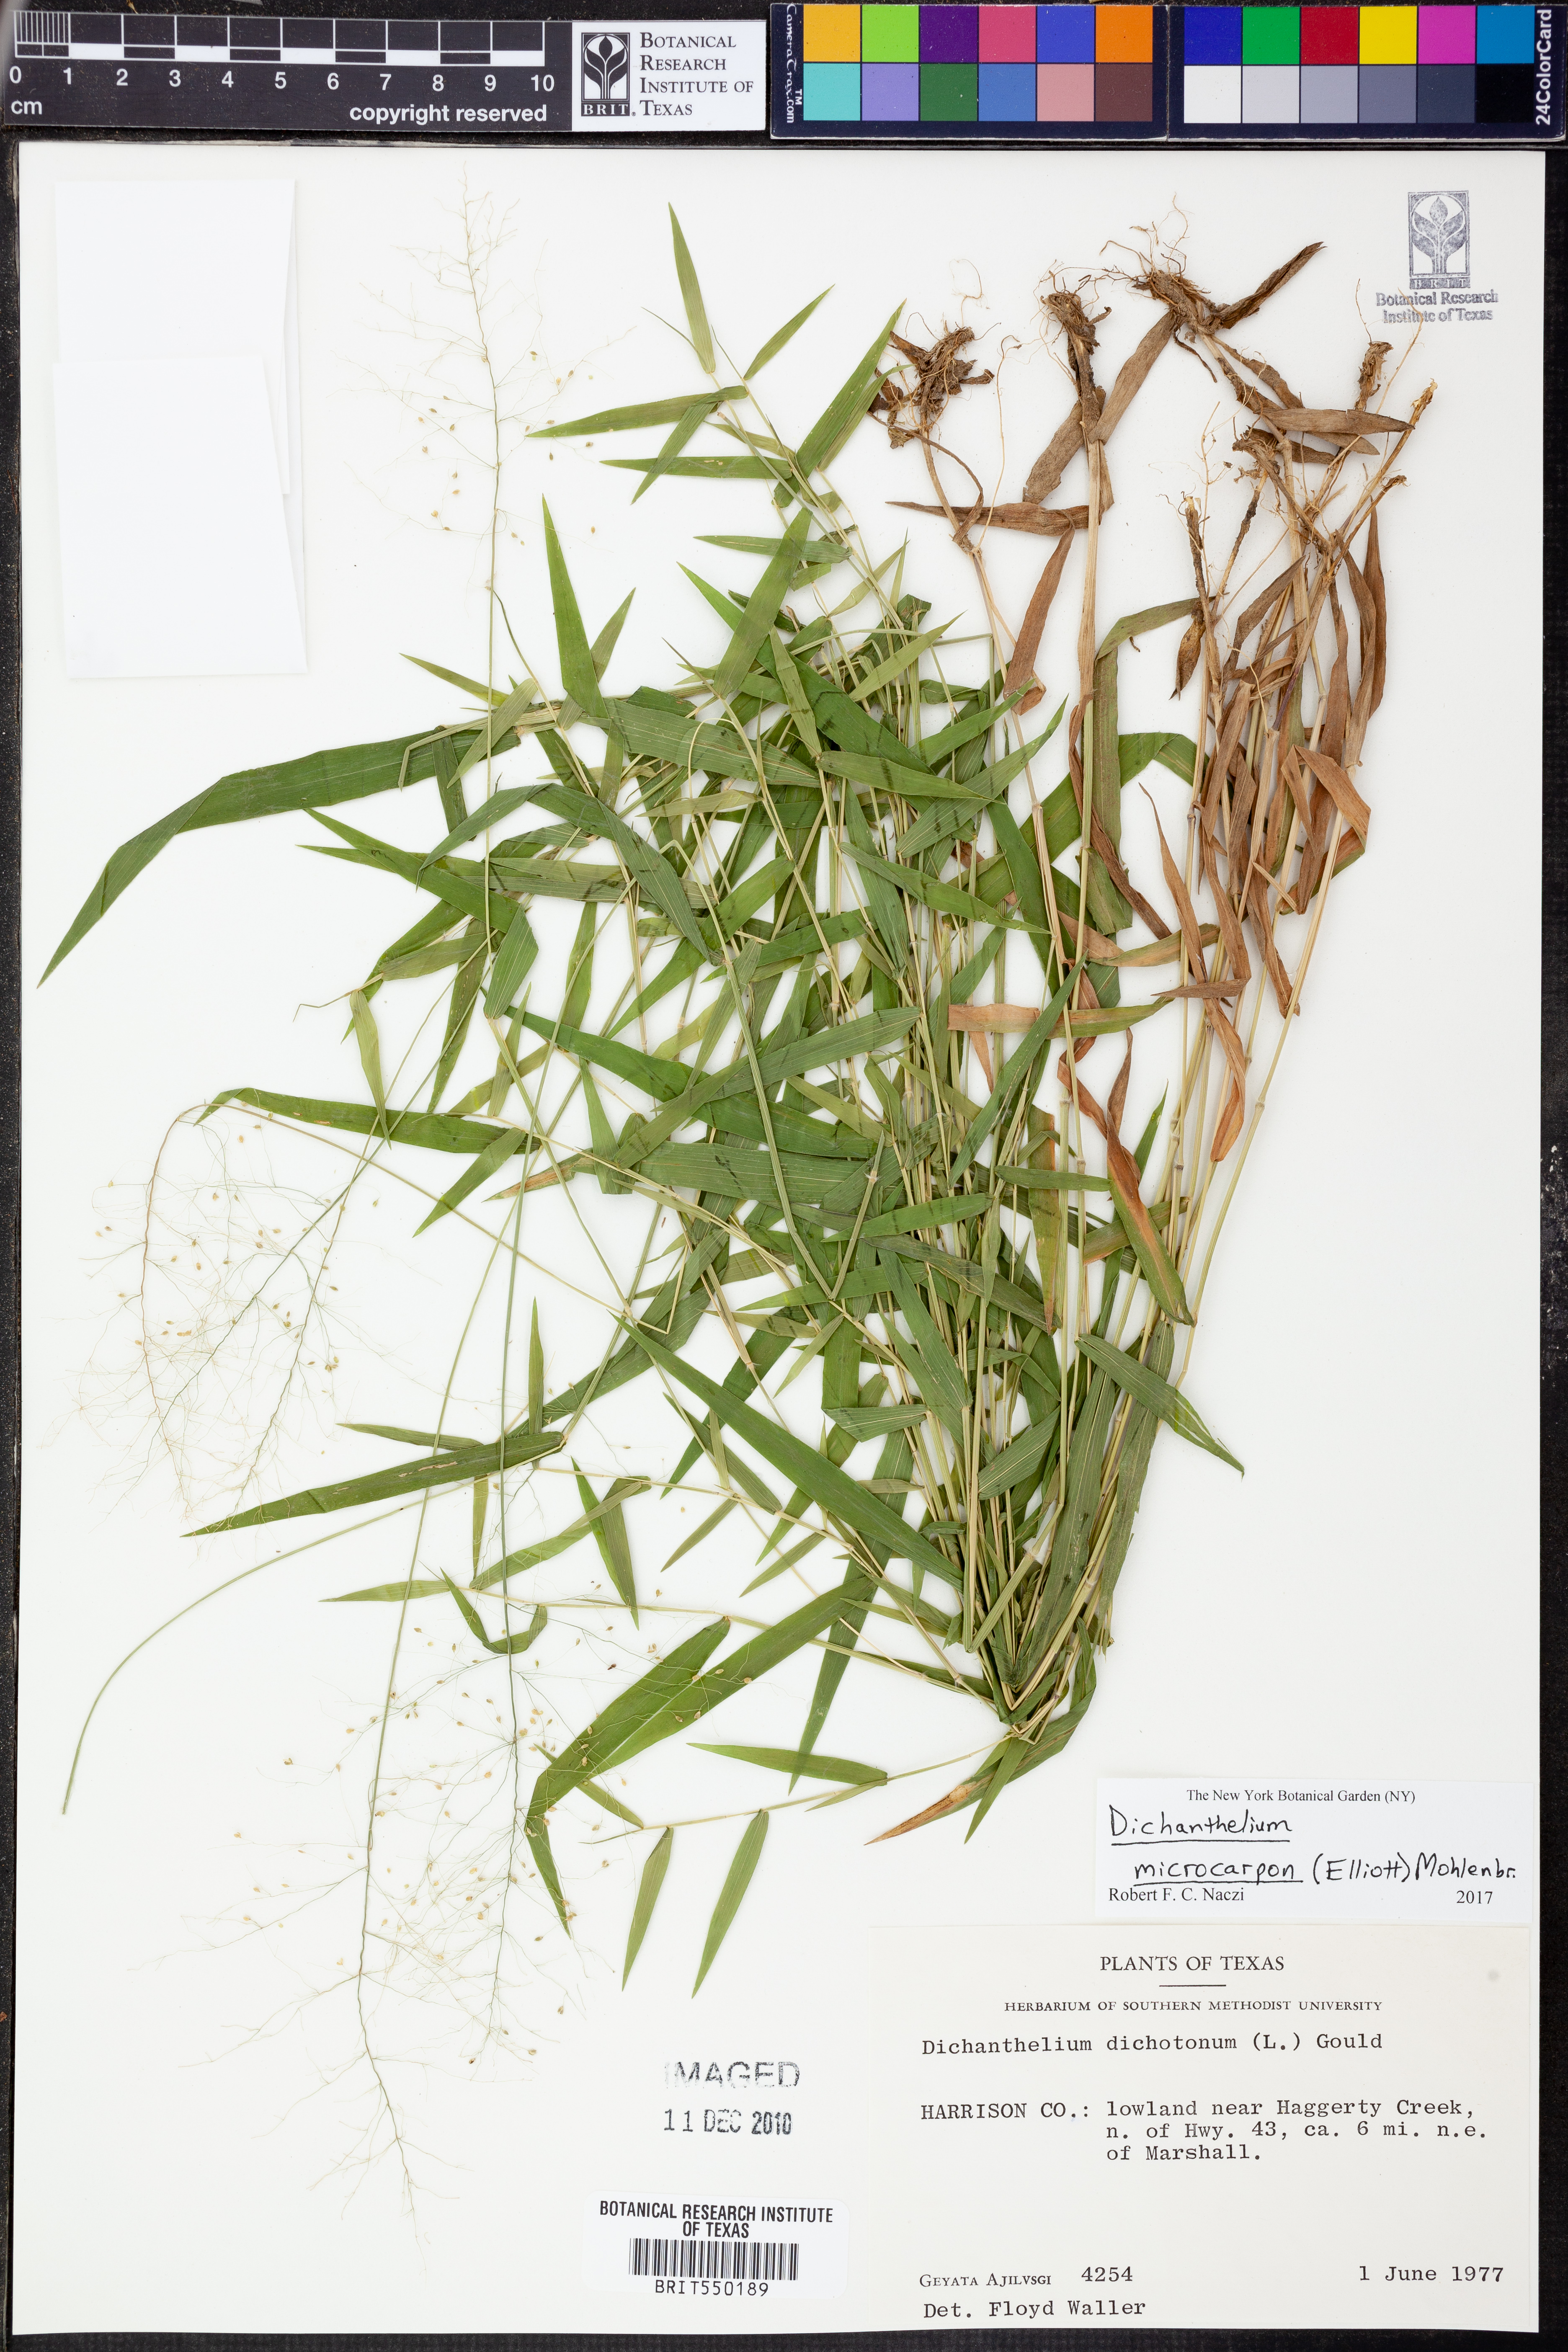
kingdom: Plantae
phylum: Tracheophyta
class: Liliopsida
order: Poales
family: Poaceae
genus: Dichanthelium
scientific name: Dichanthelium microcarpon
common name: Small-fruited witchgrass
